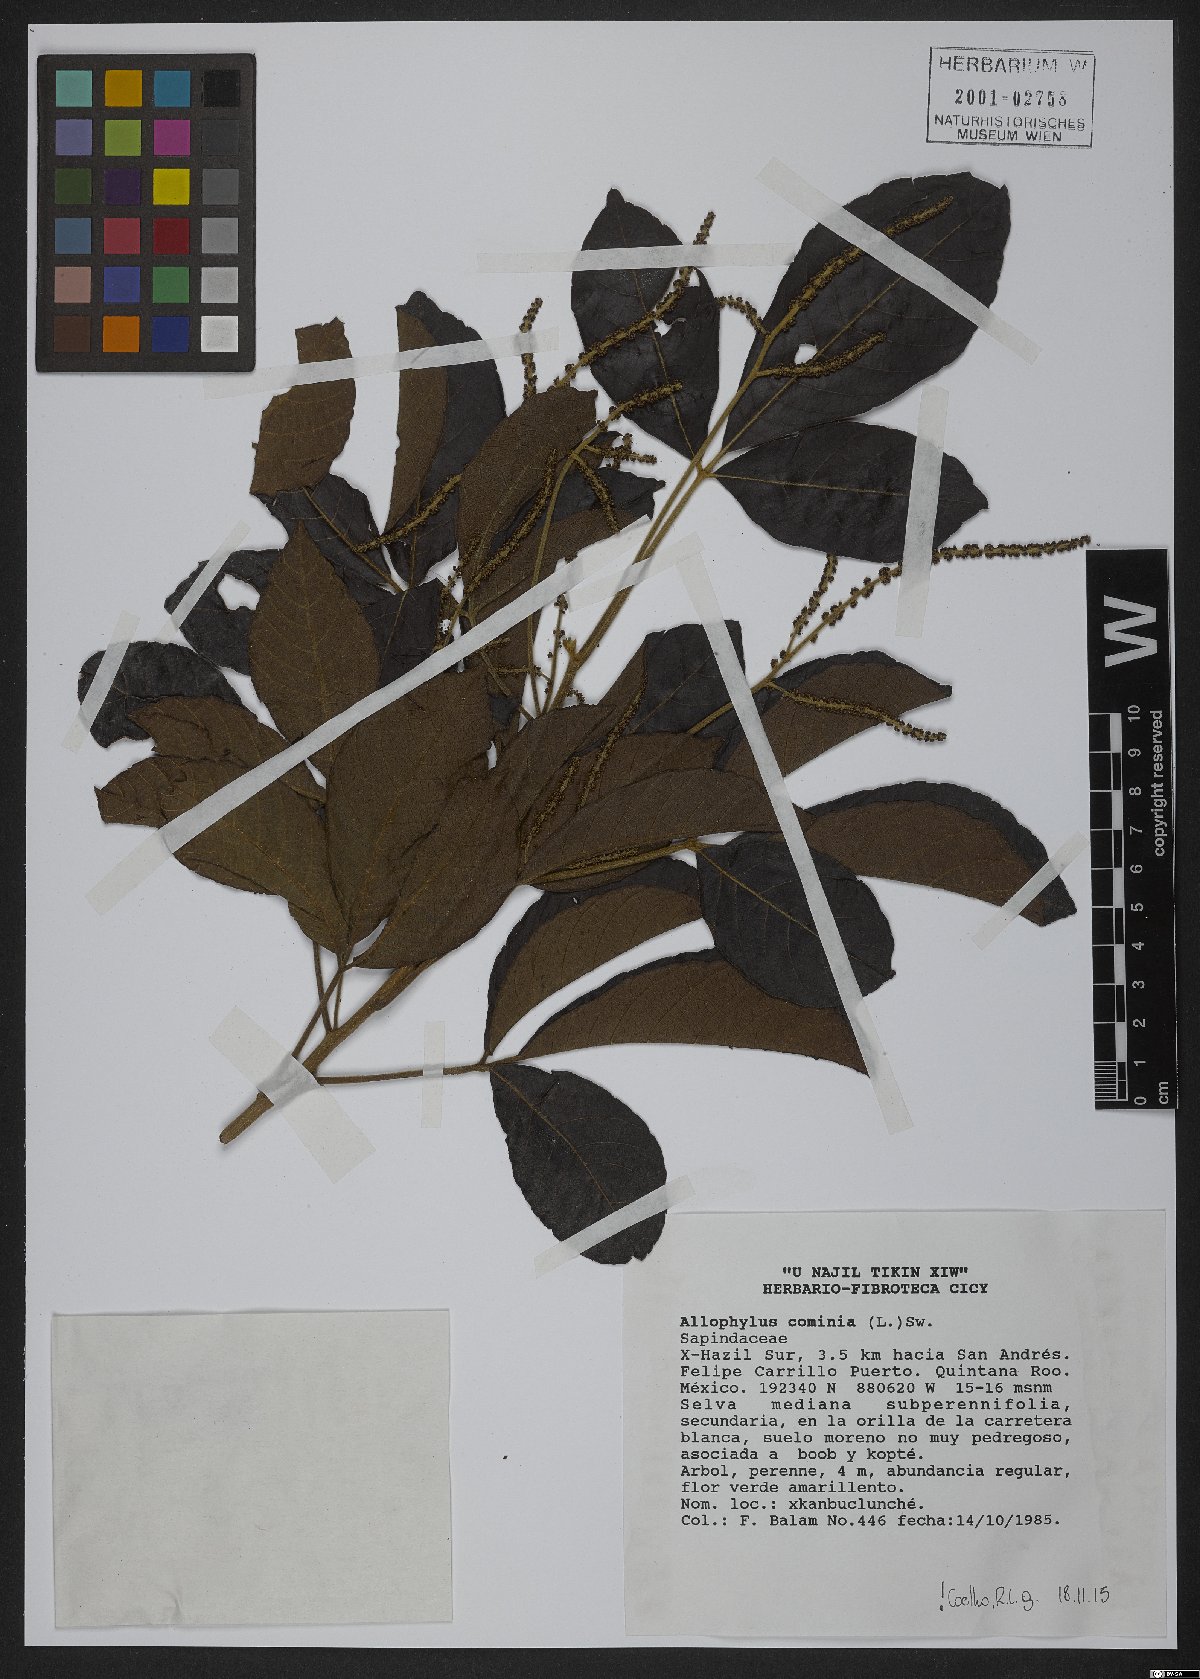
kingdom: Plantae
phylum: Tracheophyta
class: Magnoliopsida
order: Sapindales
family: Sapindaceae
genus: Allophylus
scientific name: Allophylus cominia
